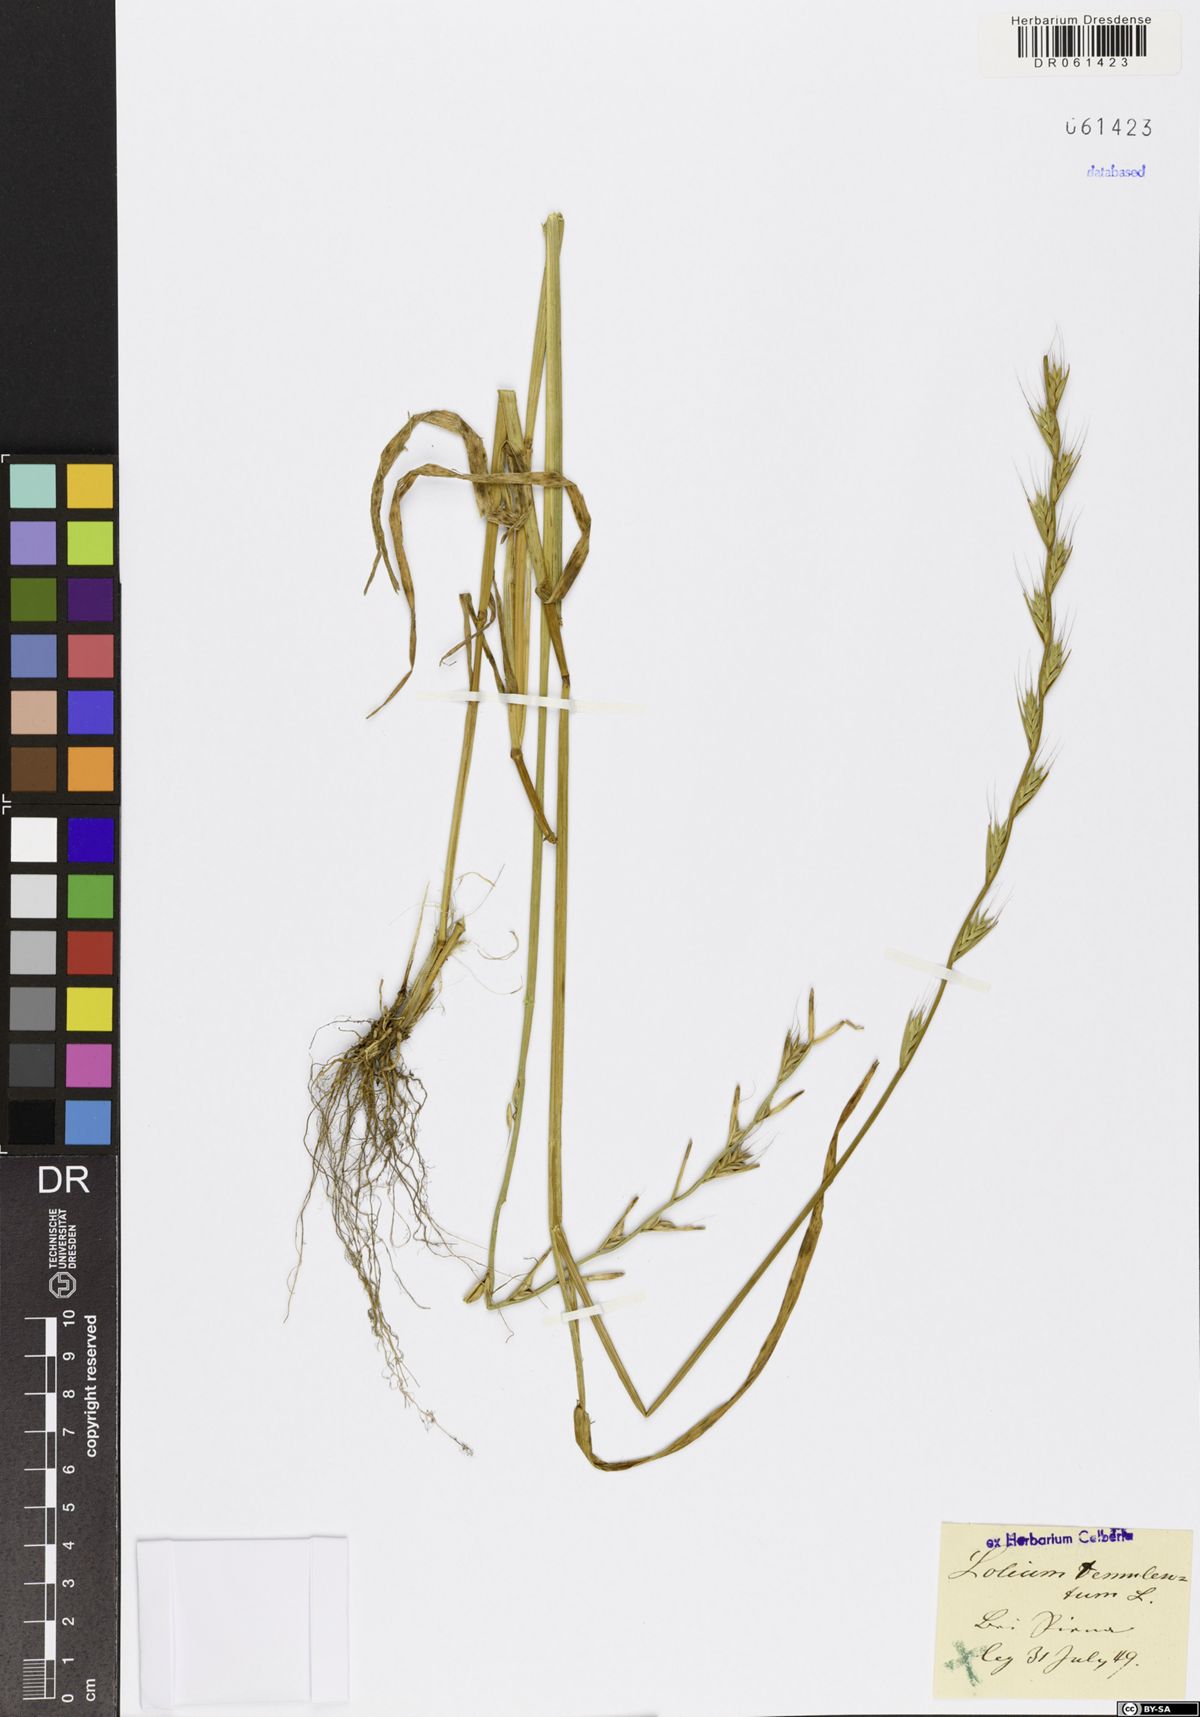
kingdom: Plantae
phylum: Tracheophyta
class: Liliopsida
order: Poales
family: Poaceae
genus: Lolium
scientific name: Lolium temulentum
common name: Darnel
